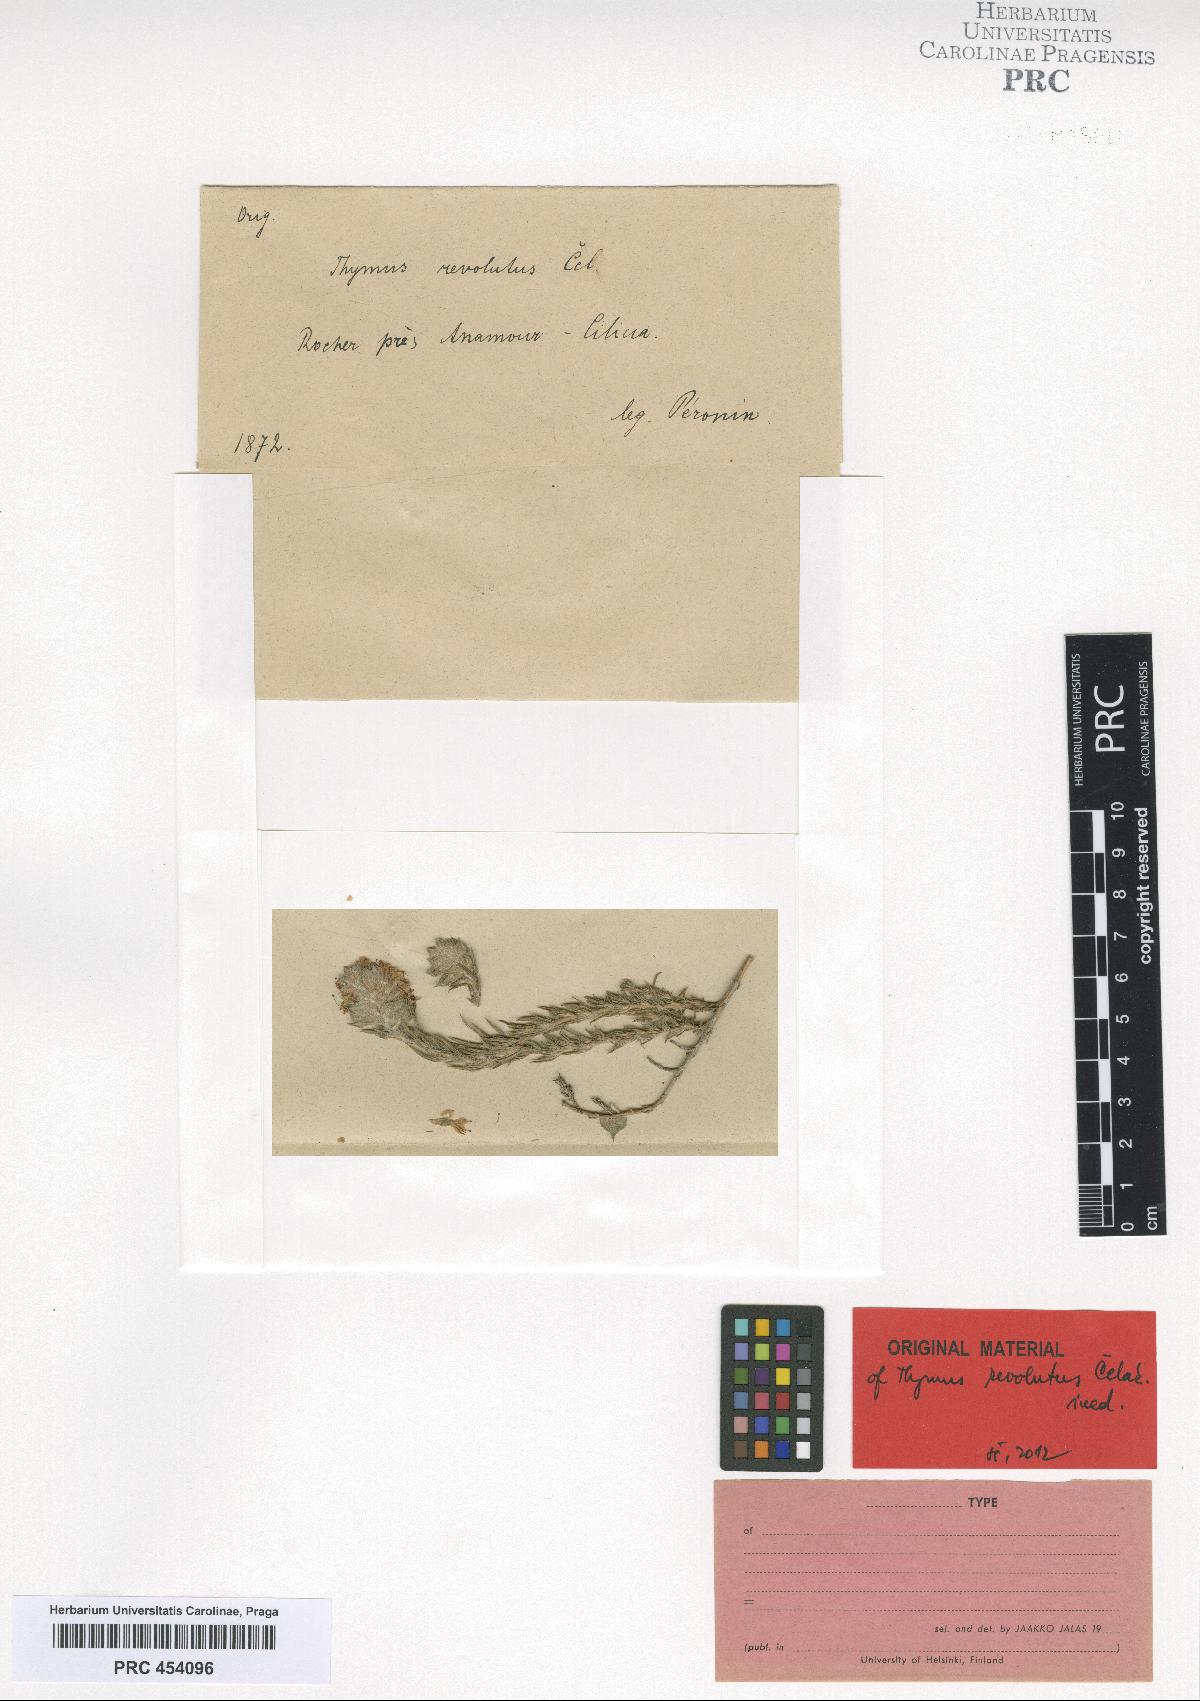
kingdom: Plantae
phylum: Tracheophyta
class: Magnoliopsida
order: Lamiales
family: Lamiaceae
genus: Thymus
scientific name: Thymus revolutus
